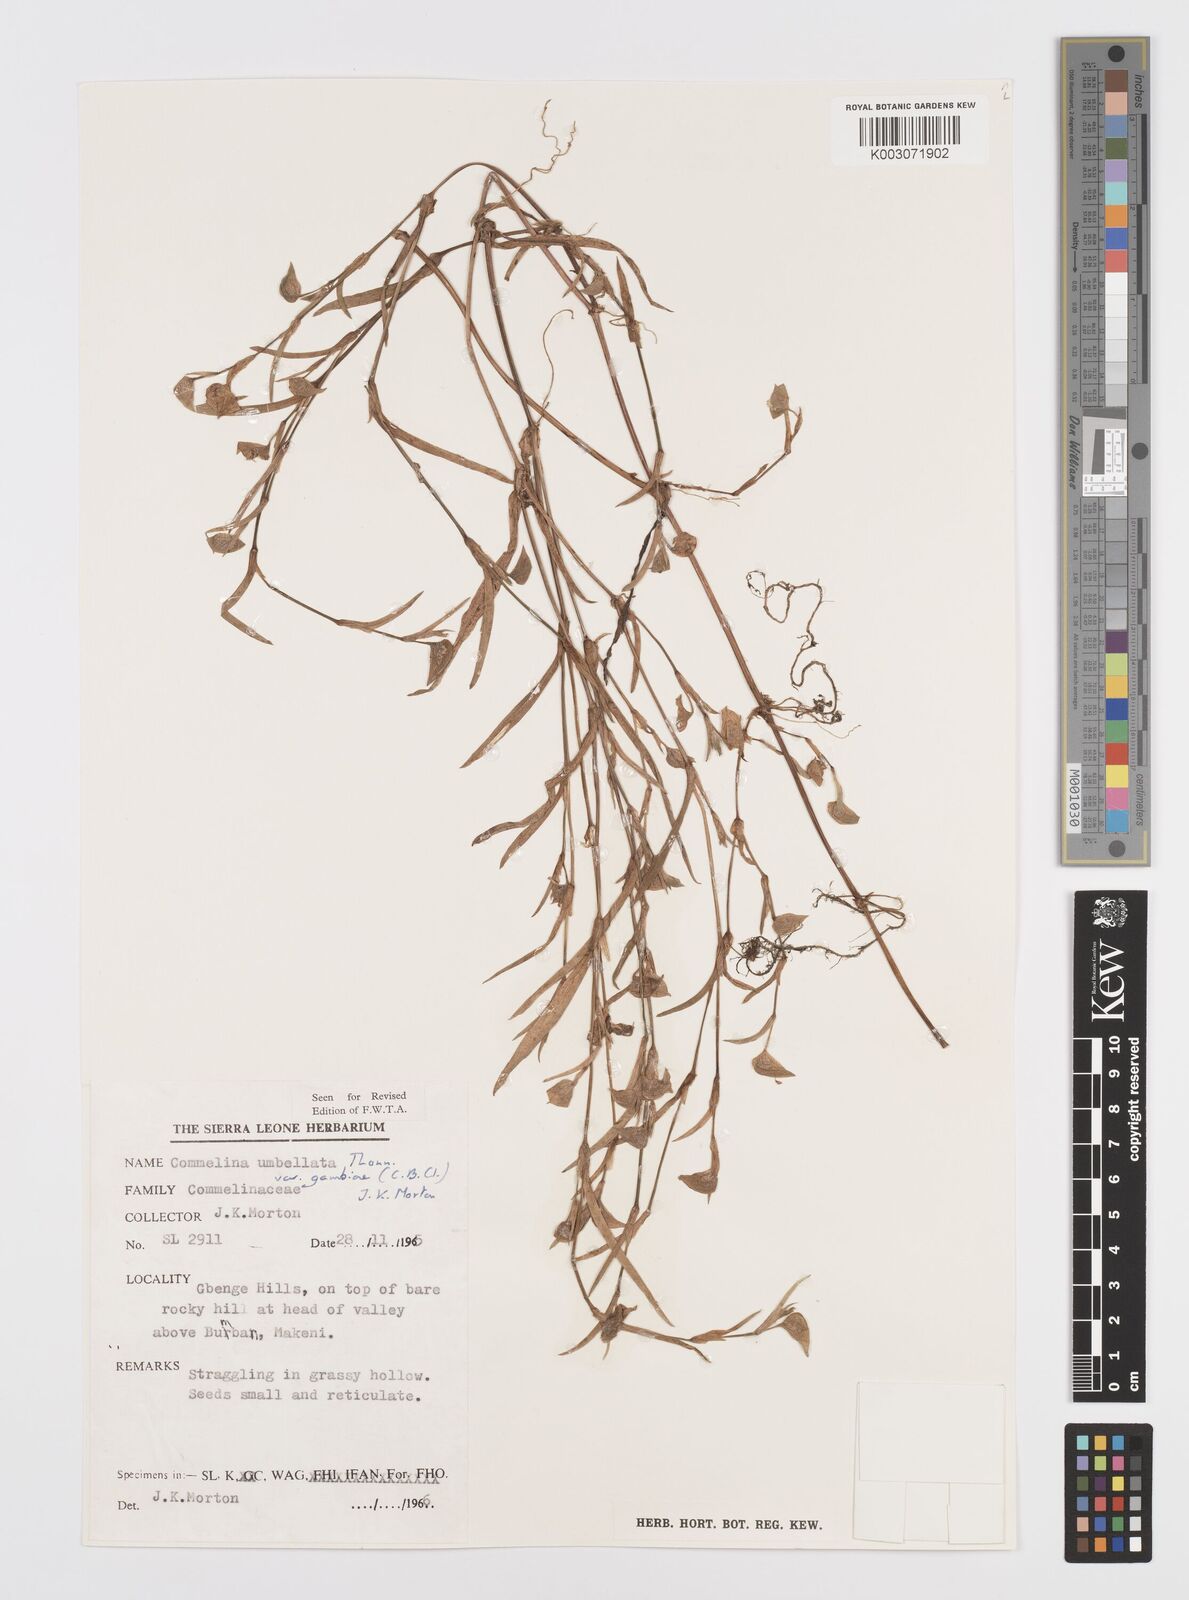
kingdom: Plantae
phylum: Tracheophyta
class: Liliopsida
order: Commelinales
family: Commelinaceae
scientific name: Commelinaceae
